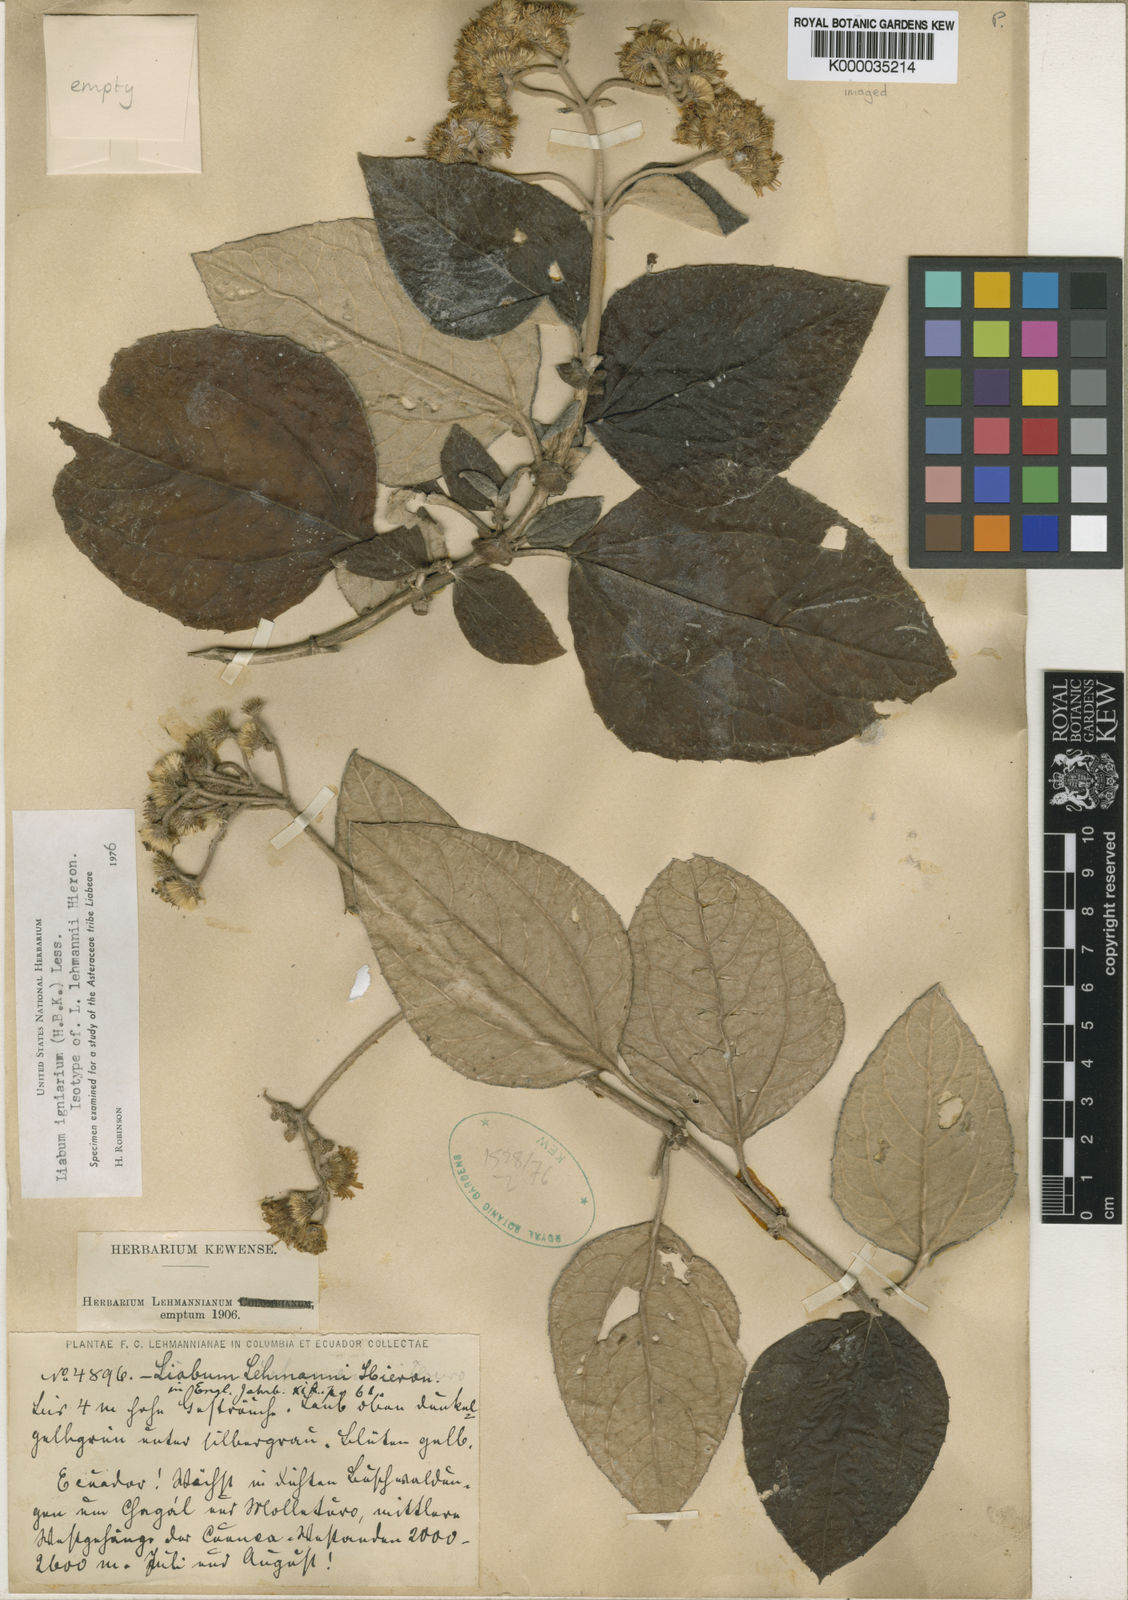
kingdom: Plantae
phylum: Tracheophyta
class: Magnoliopsida
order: Asterales
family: Asteraceae
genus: Liabum
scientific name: Liabum igniarium
